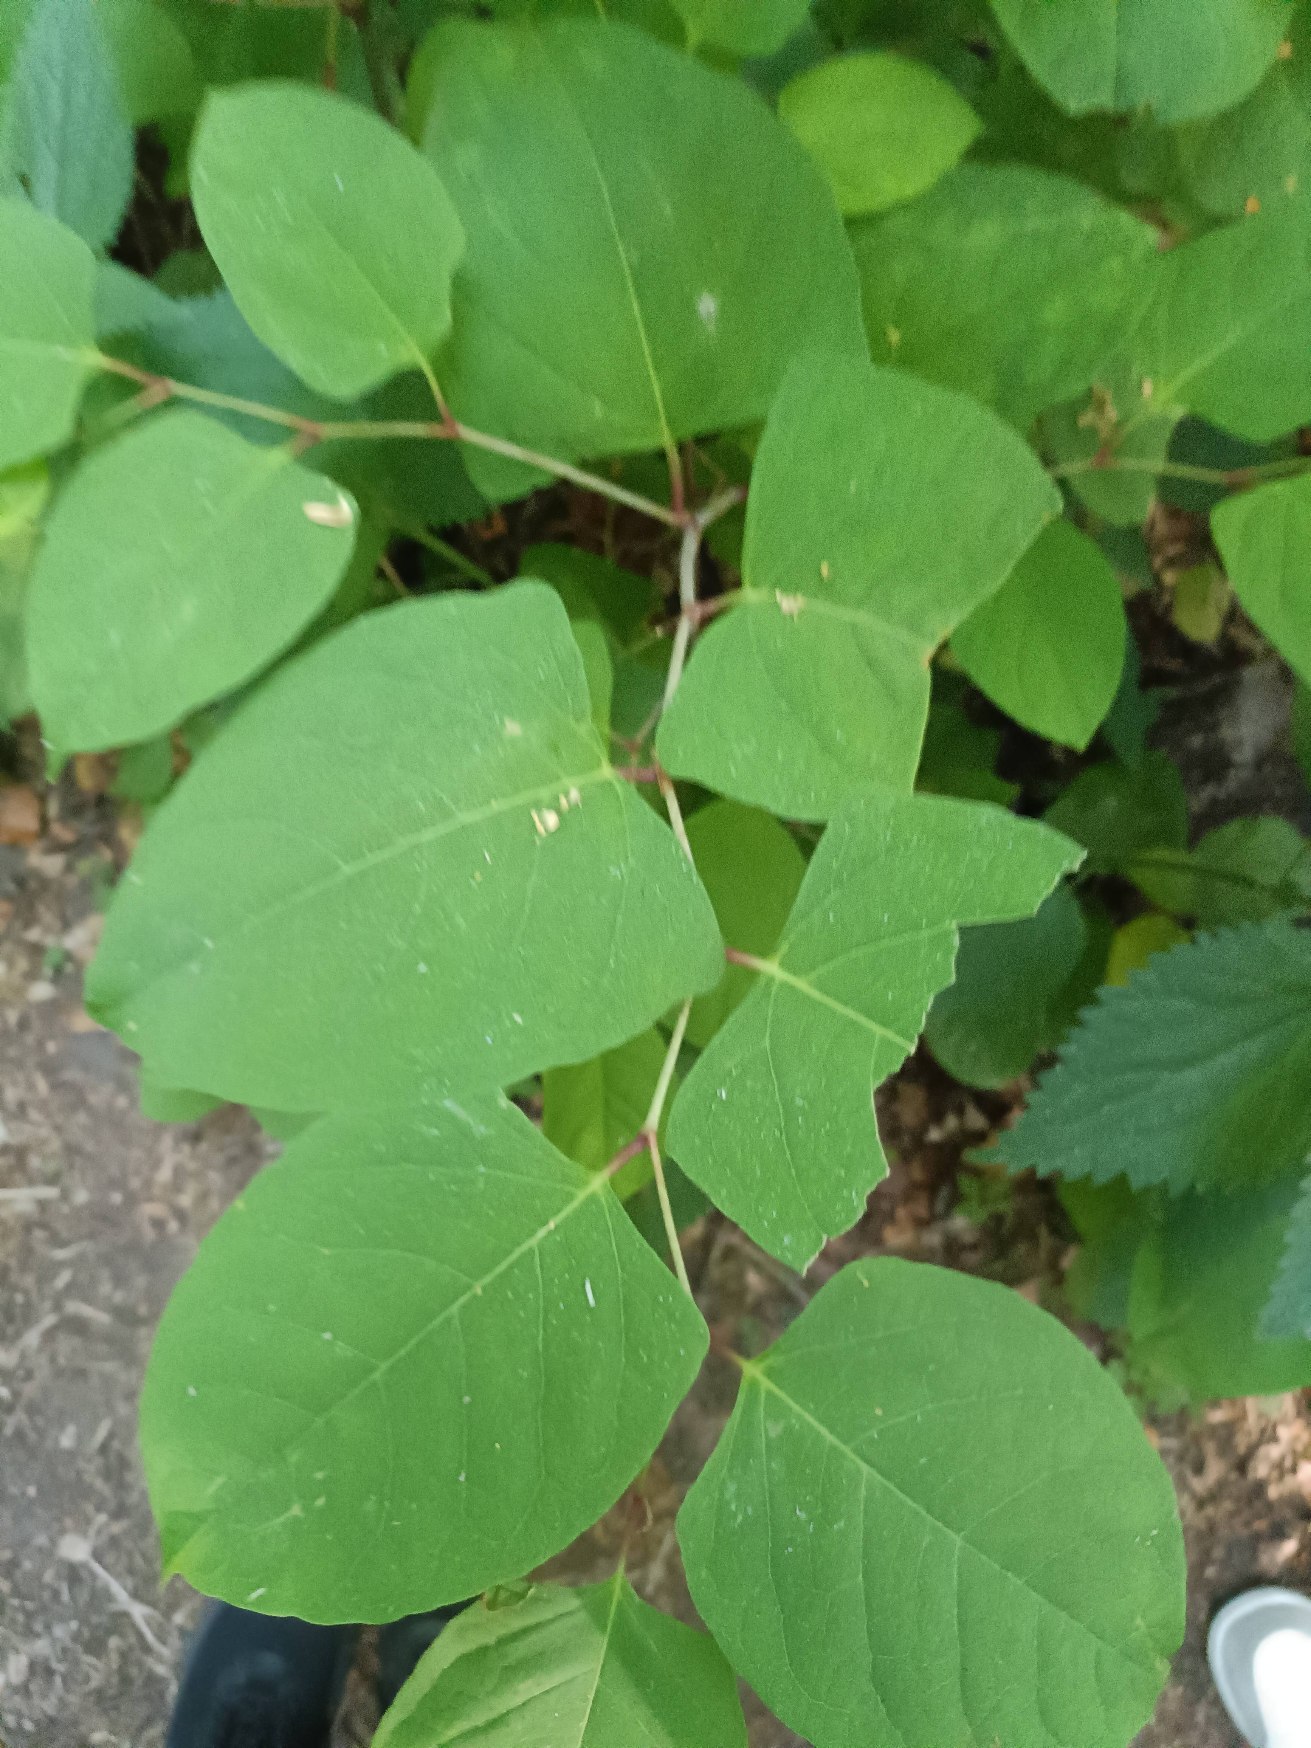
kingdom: Plantae
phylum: Tracheophyta
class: Magnoliopsida
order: Caryophyllales
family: Polygonaceae
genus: Reynoutria
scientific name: Reynoutria japonica
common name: Japan-pileurt
